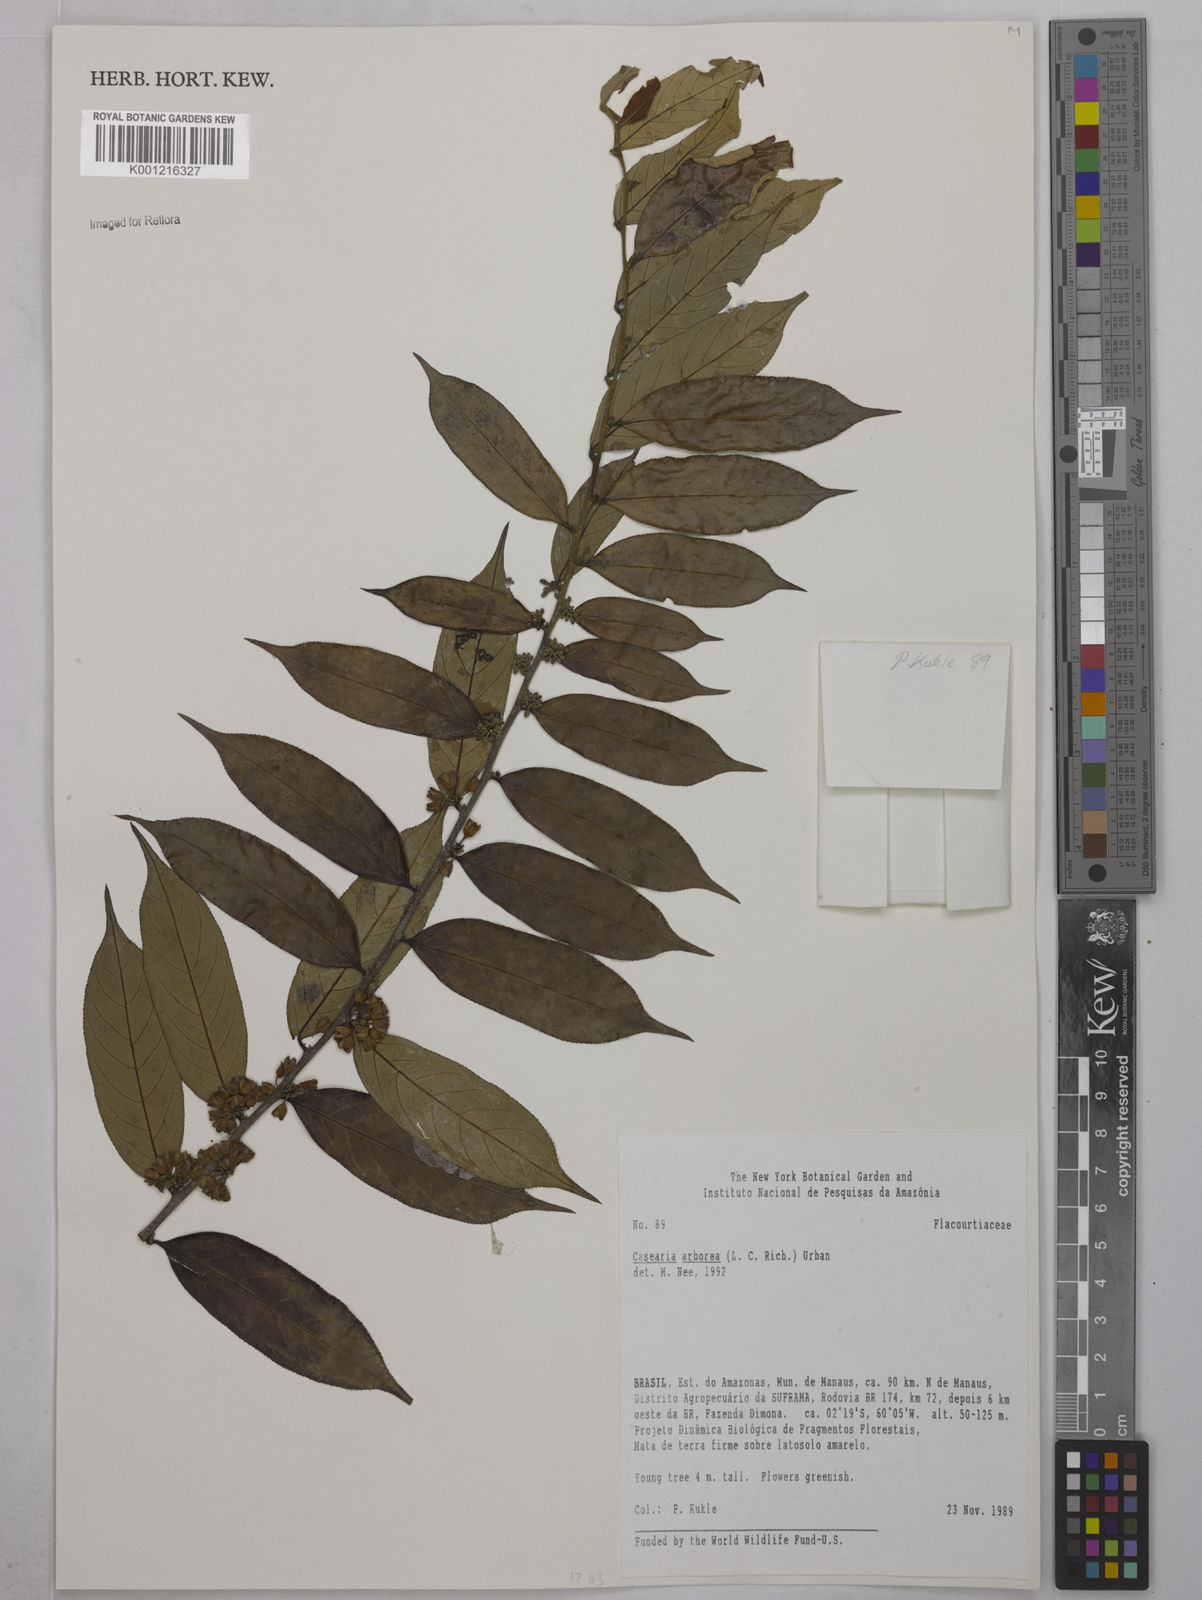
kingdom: Plantae
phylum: Tracheophyta
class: Magnoliopsida
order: Malpighiales
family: Salicaceae
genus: Casearia
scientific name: Casearia arborea
